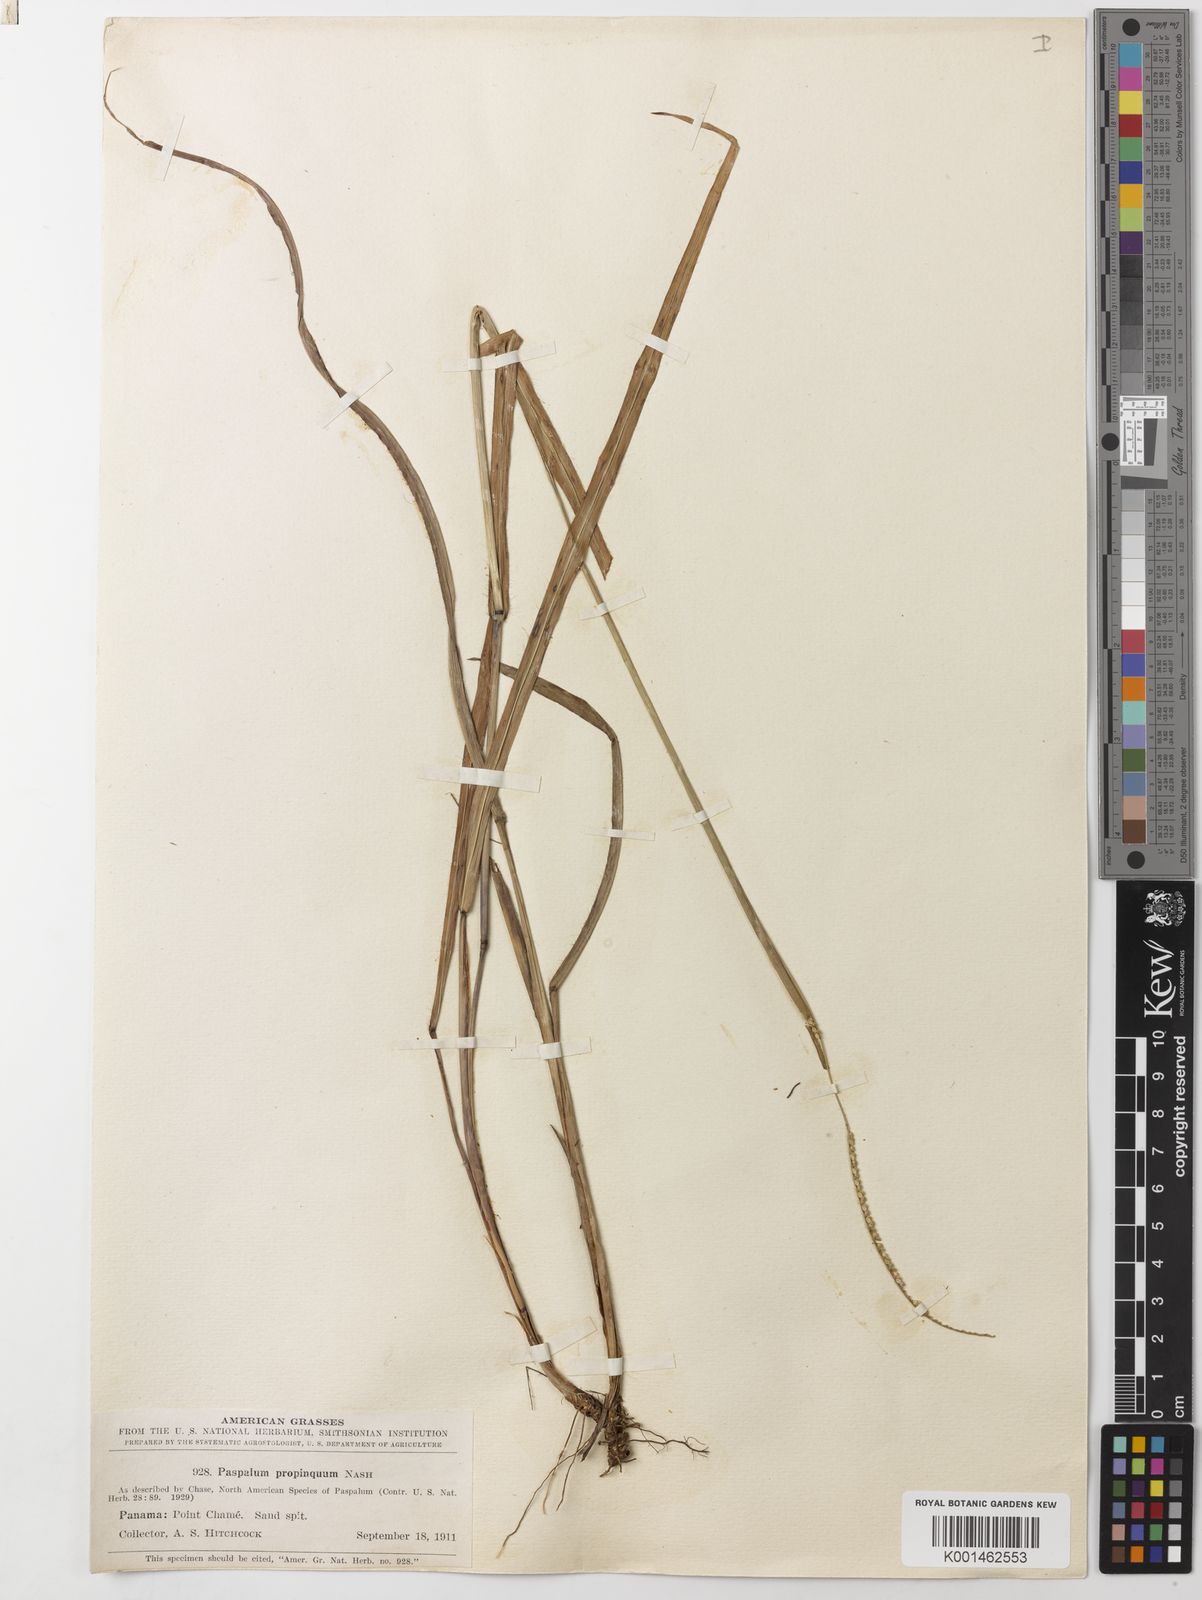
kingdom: Plantae
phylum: Tracheophyta
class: Liliopsida
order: Poales
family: Poaceae
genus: Paspalum
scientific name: Paspalum setaceum
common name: Slender paspalum
